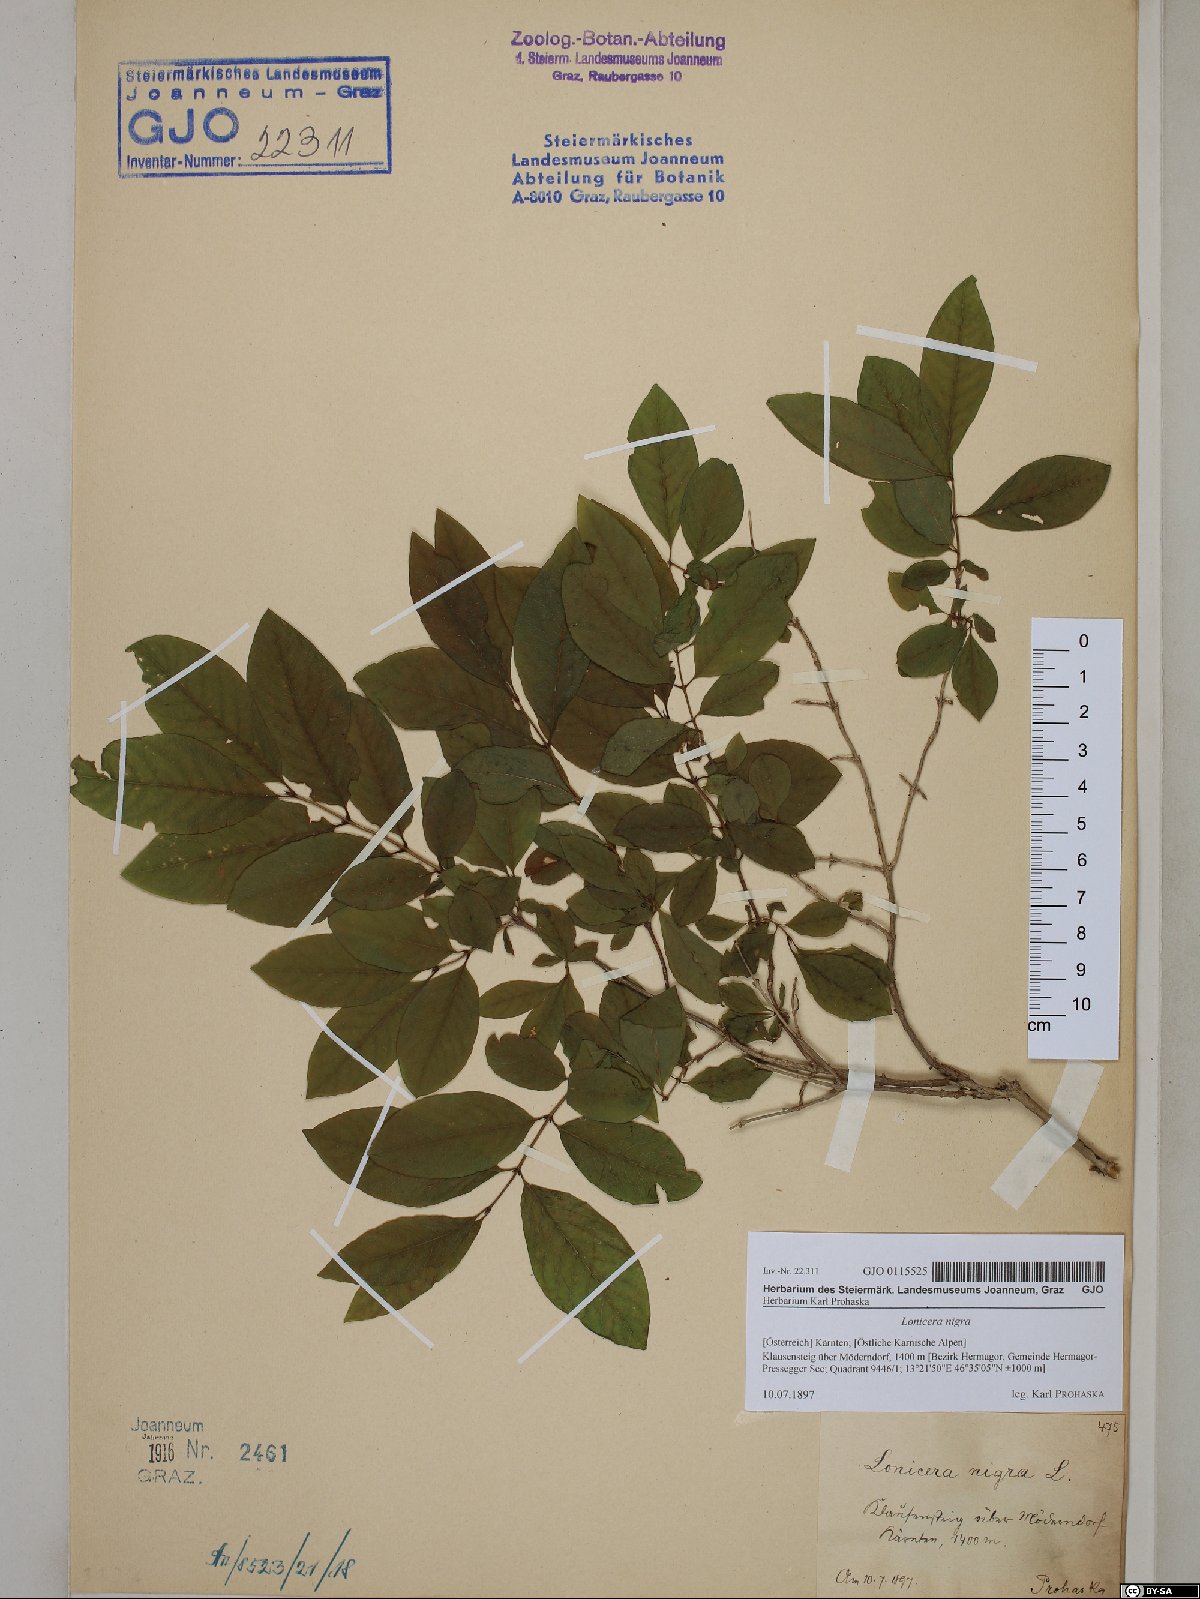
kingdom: Plantae
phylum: Tracheophyta
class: Magnoliopsida
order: Dipsacales
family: Caprifoliaceae
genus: Lonicera
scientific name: Lonicera nigra
